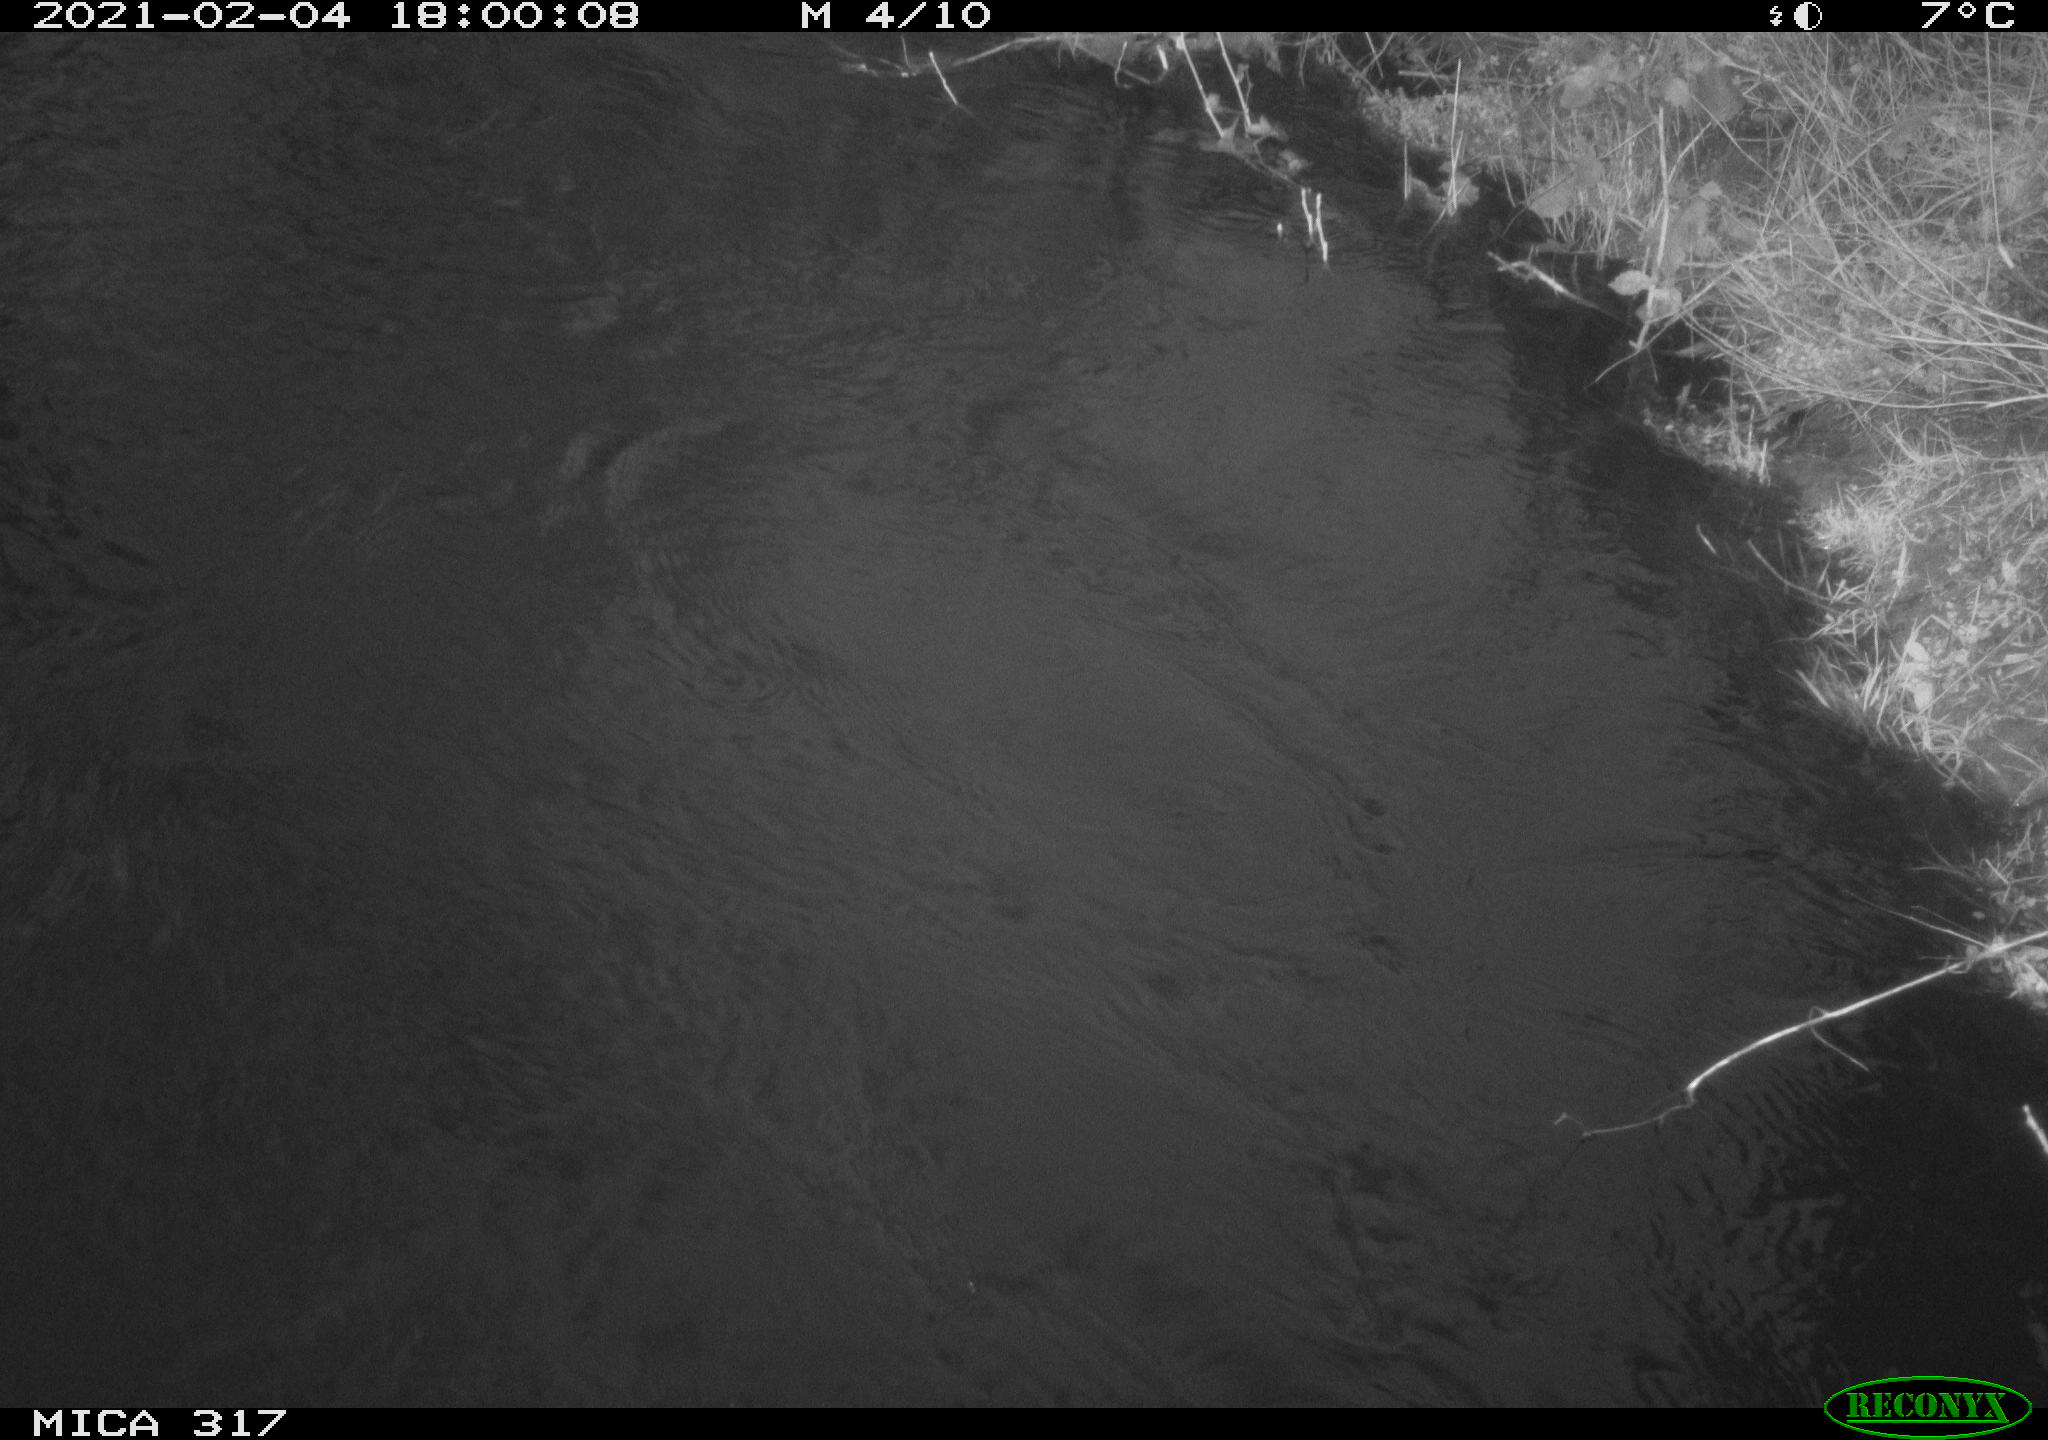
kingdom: Animalia
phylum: Chordata
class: Aves
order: Gruiformes
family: Rallidae
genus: Gallinula
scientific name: Gallinula chloropus
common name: Common moorhen
